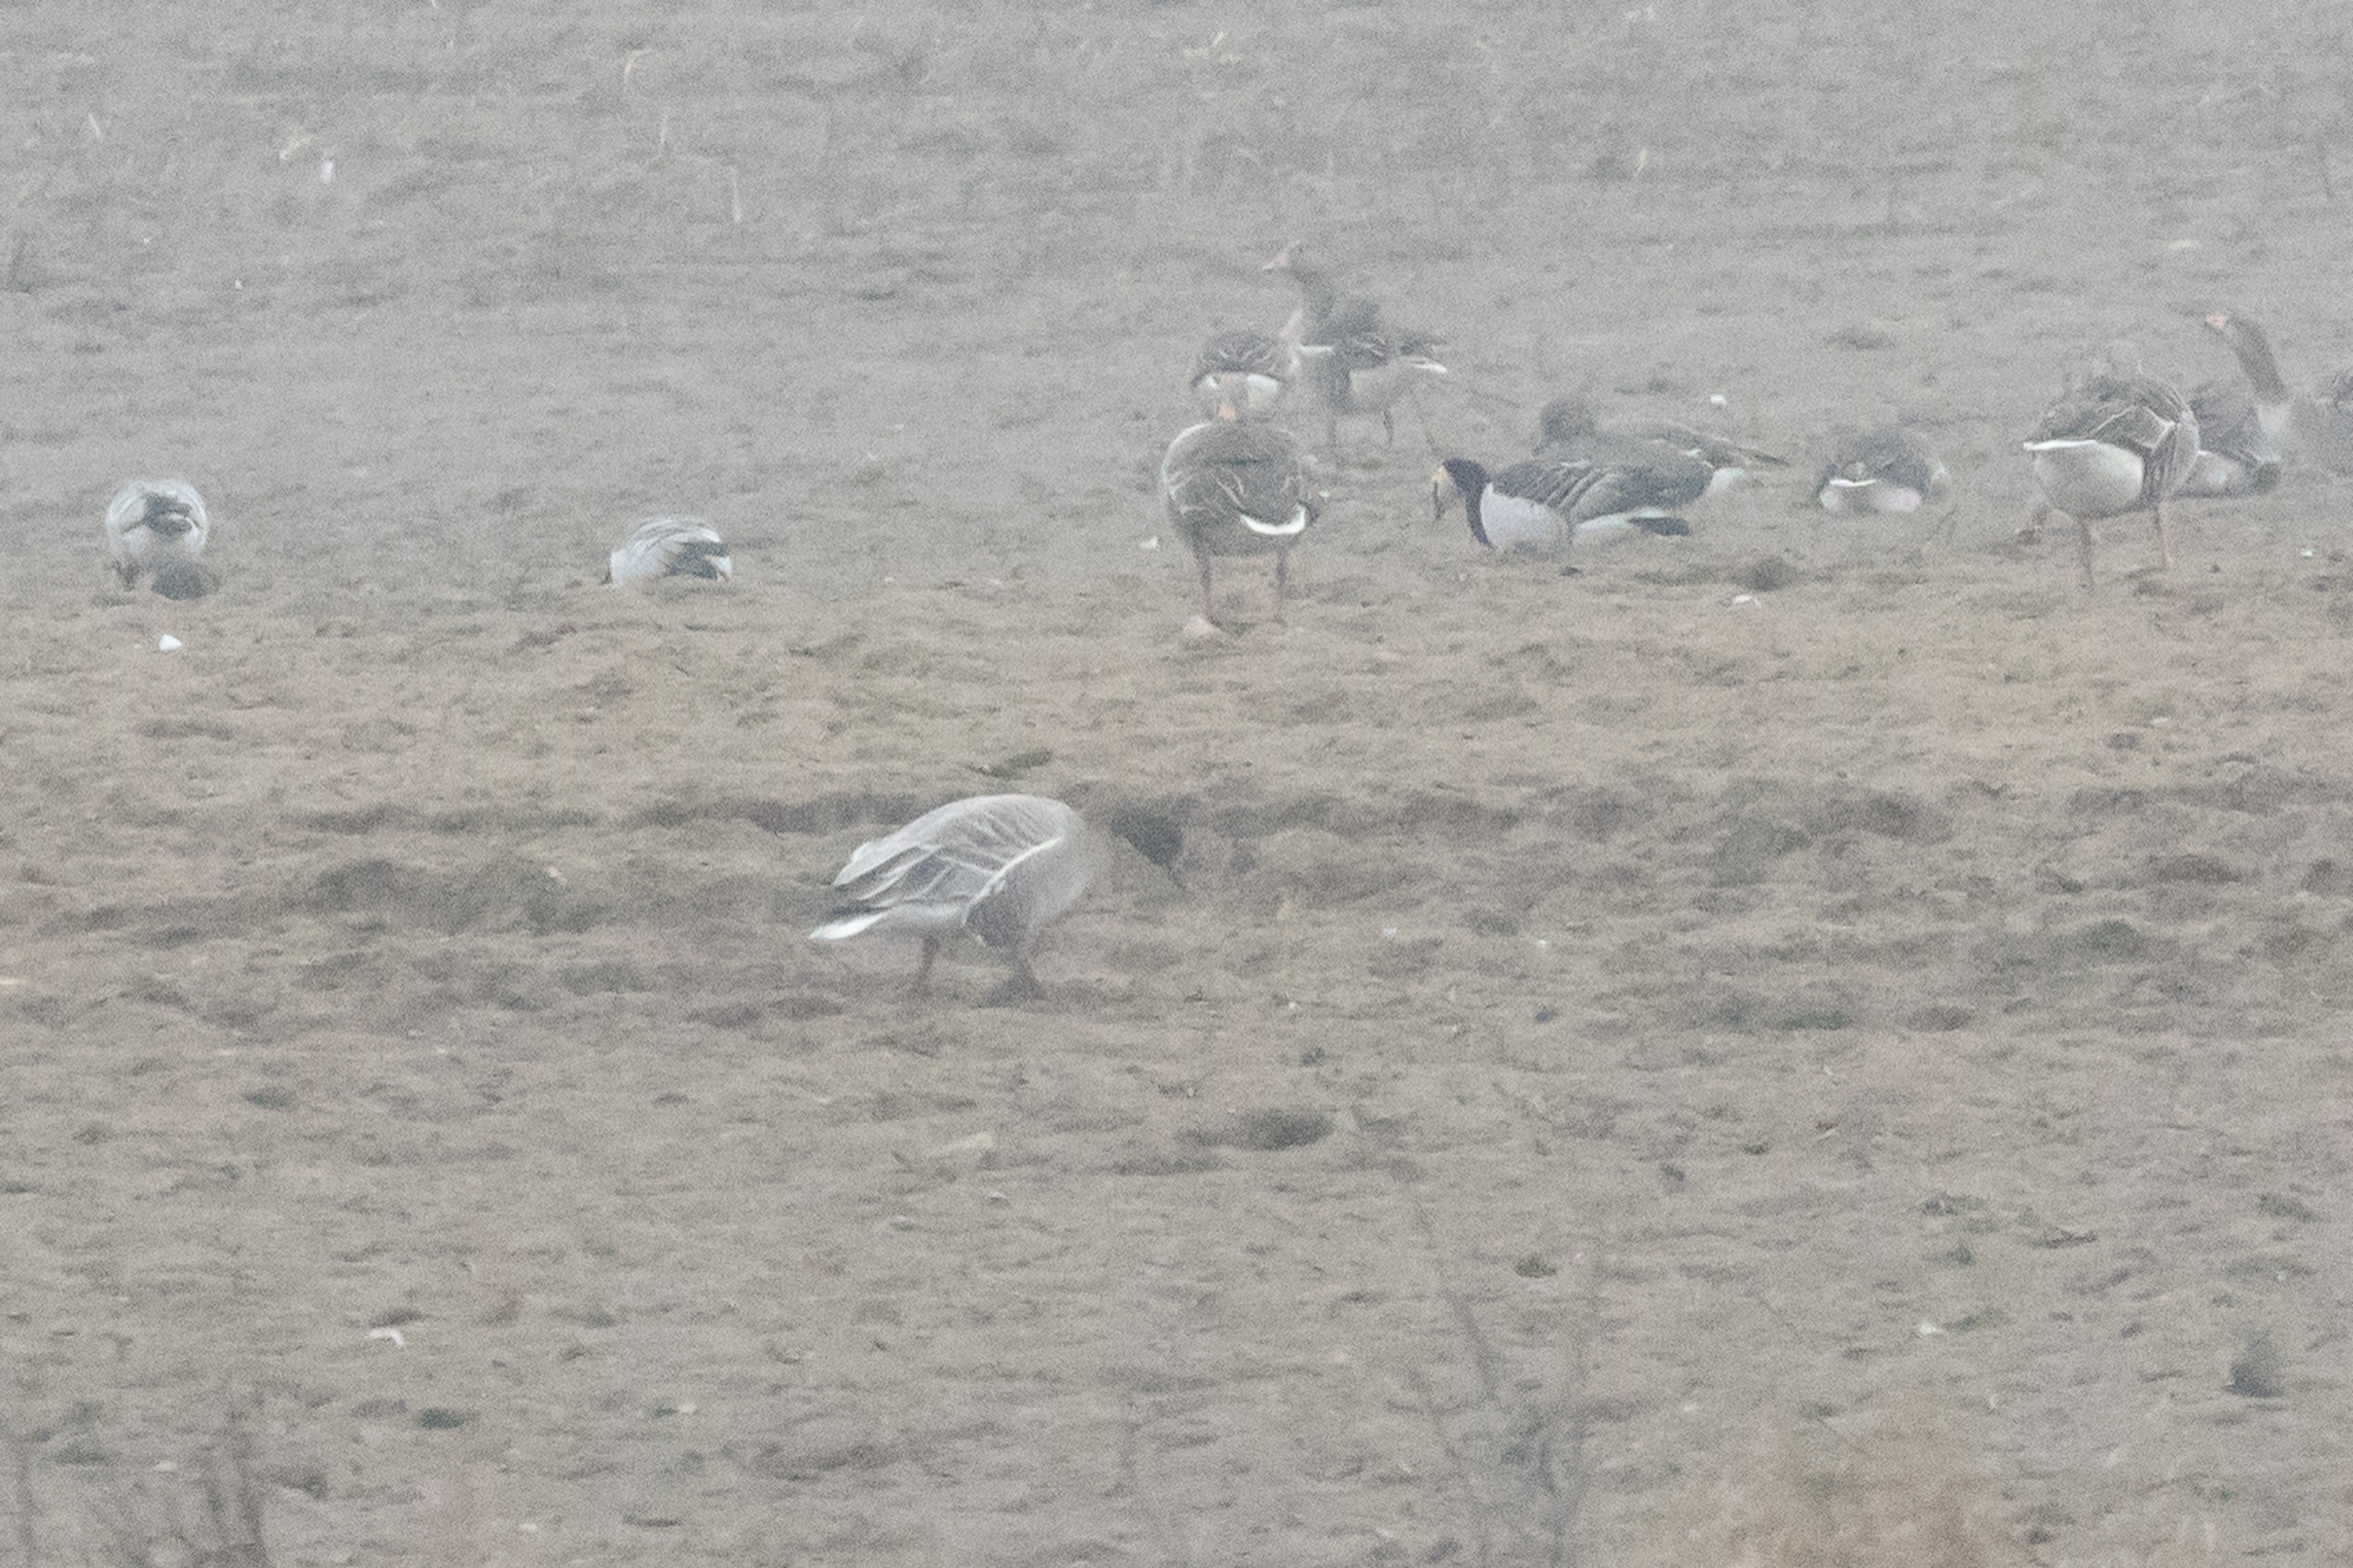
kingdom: Animalia
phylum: Chordata
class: Aves
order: Anseriformes
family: Anatidae
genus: Anser
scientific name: Anser brachyrhynchus
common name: Kortnæbbet gås
